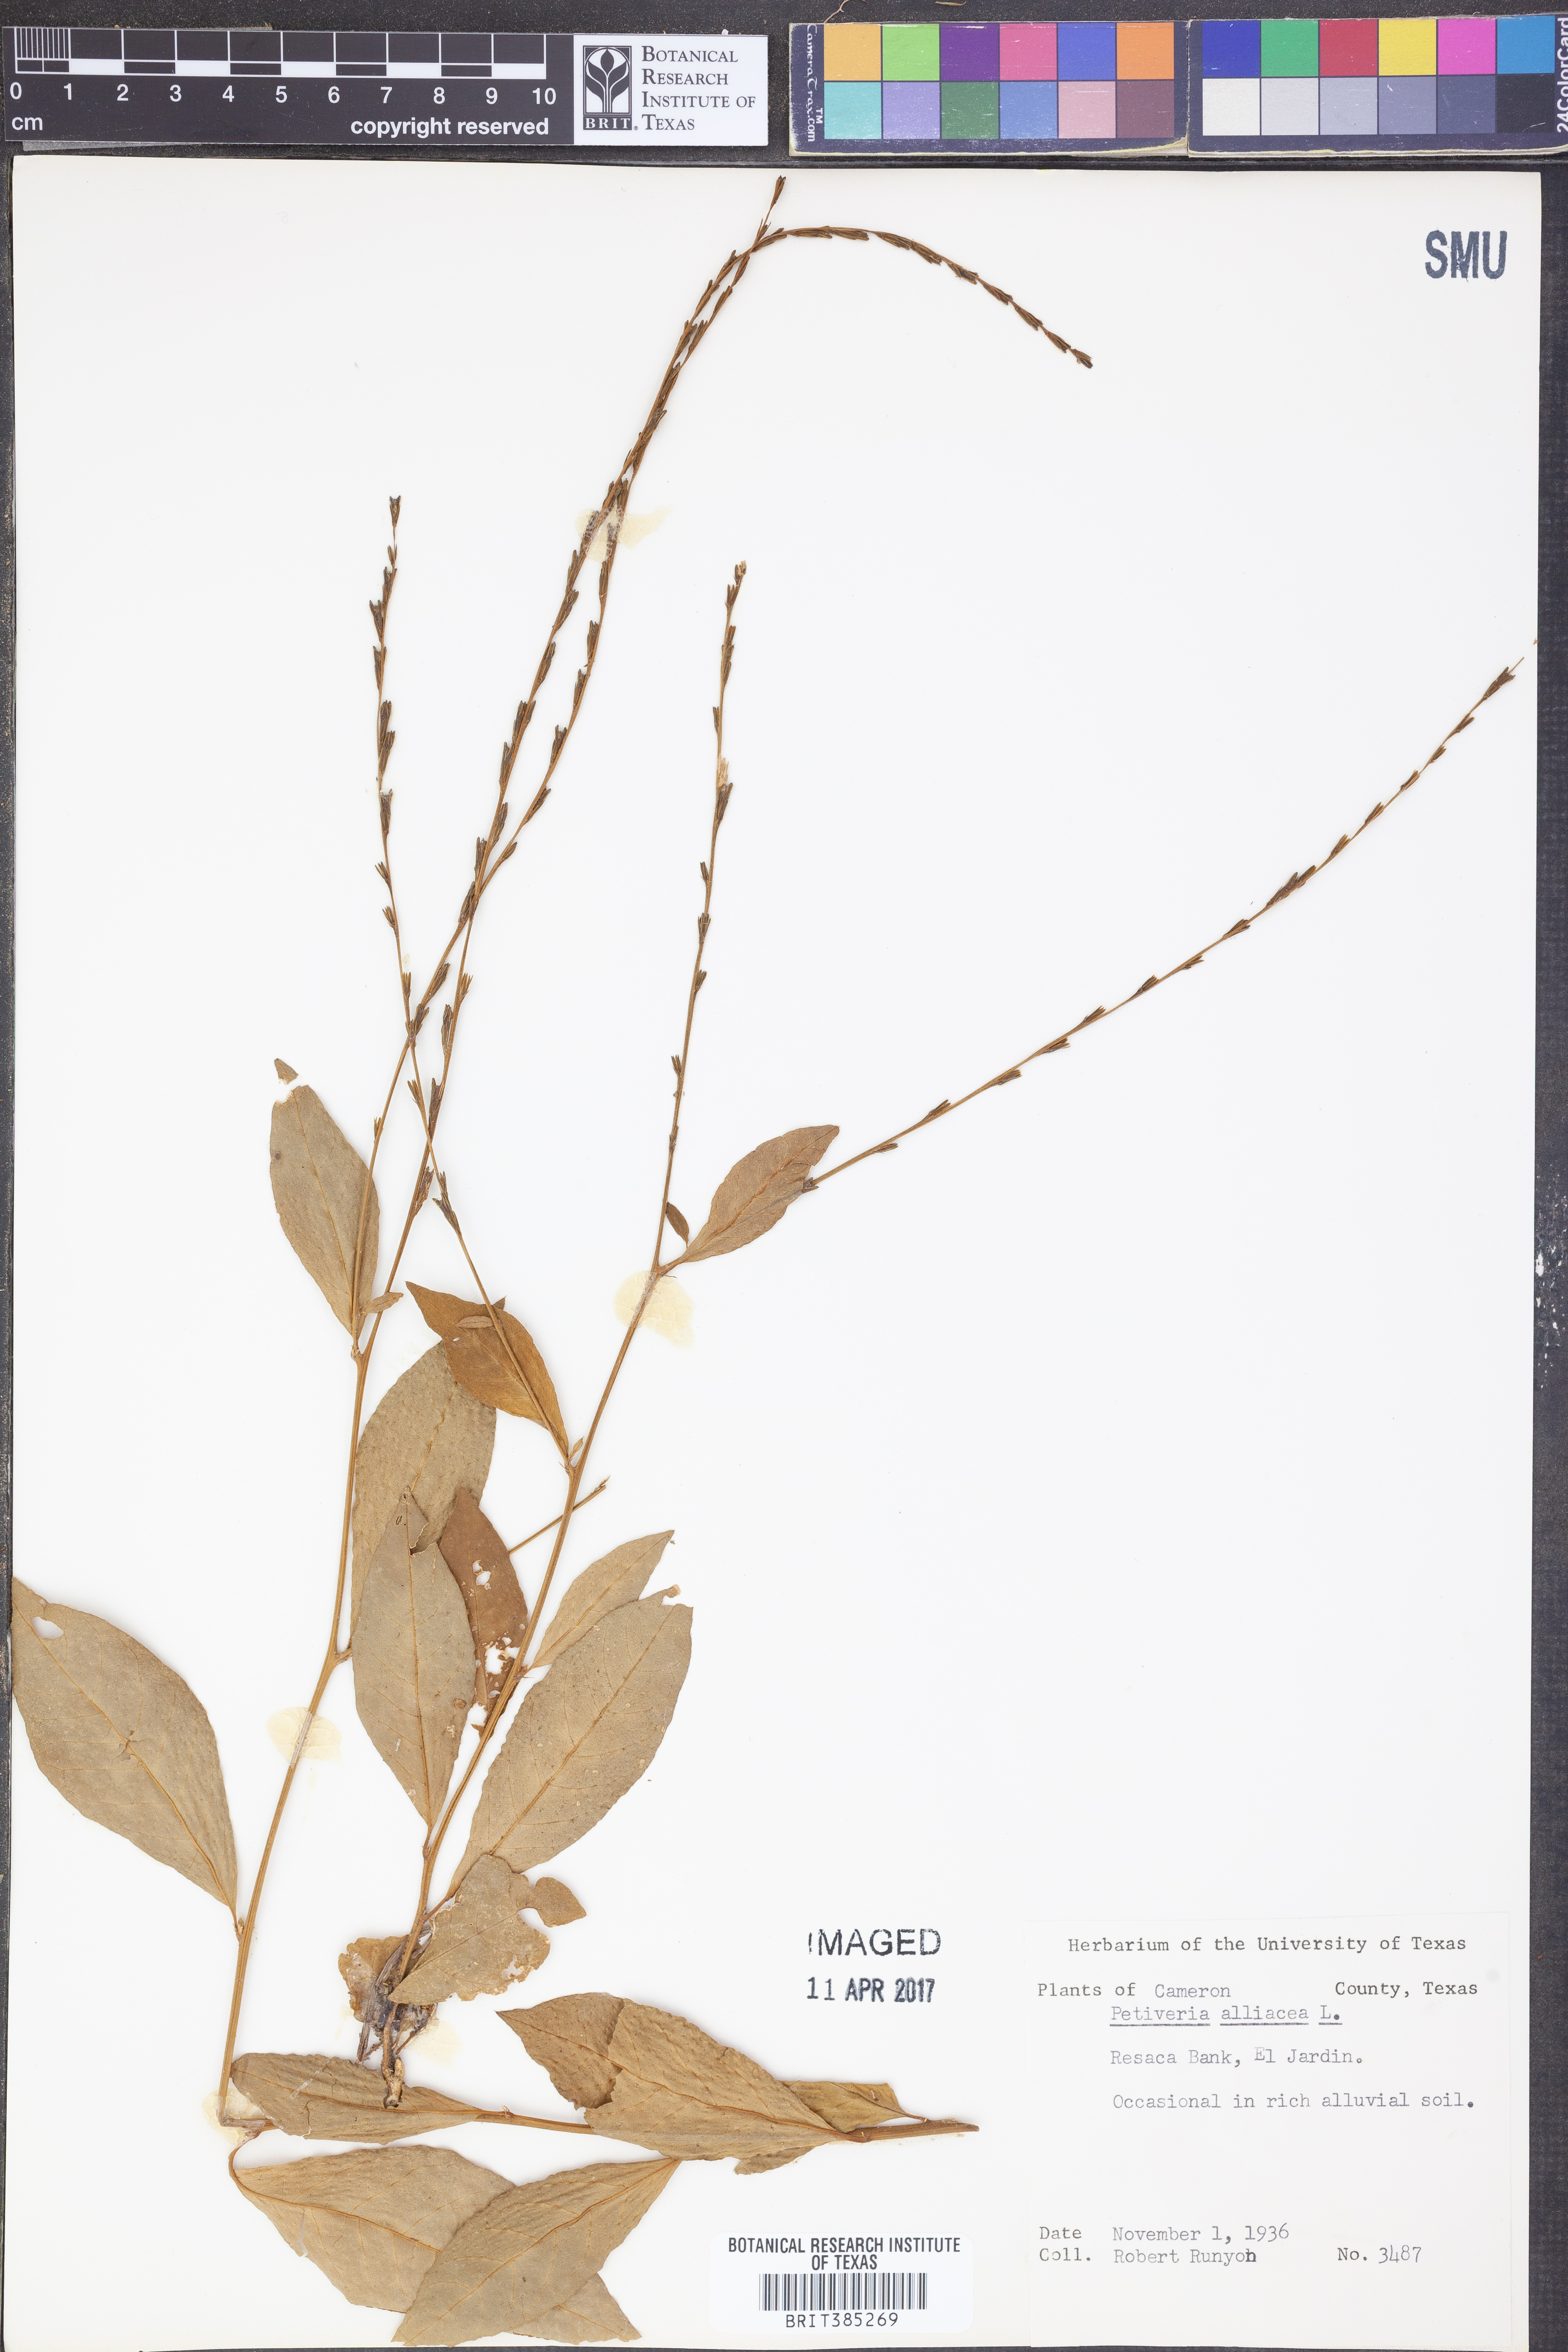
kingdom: Plantae
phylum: Tracheophyta
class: Magnoliopsida
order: Caryophyllales
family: Phytolaccaceae
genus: Petiveria
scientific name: Petiveria alliacea
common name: Garlicweed
